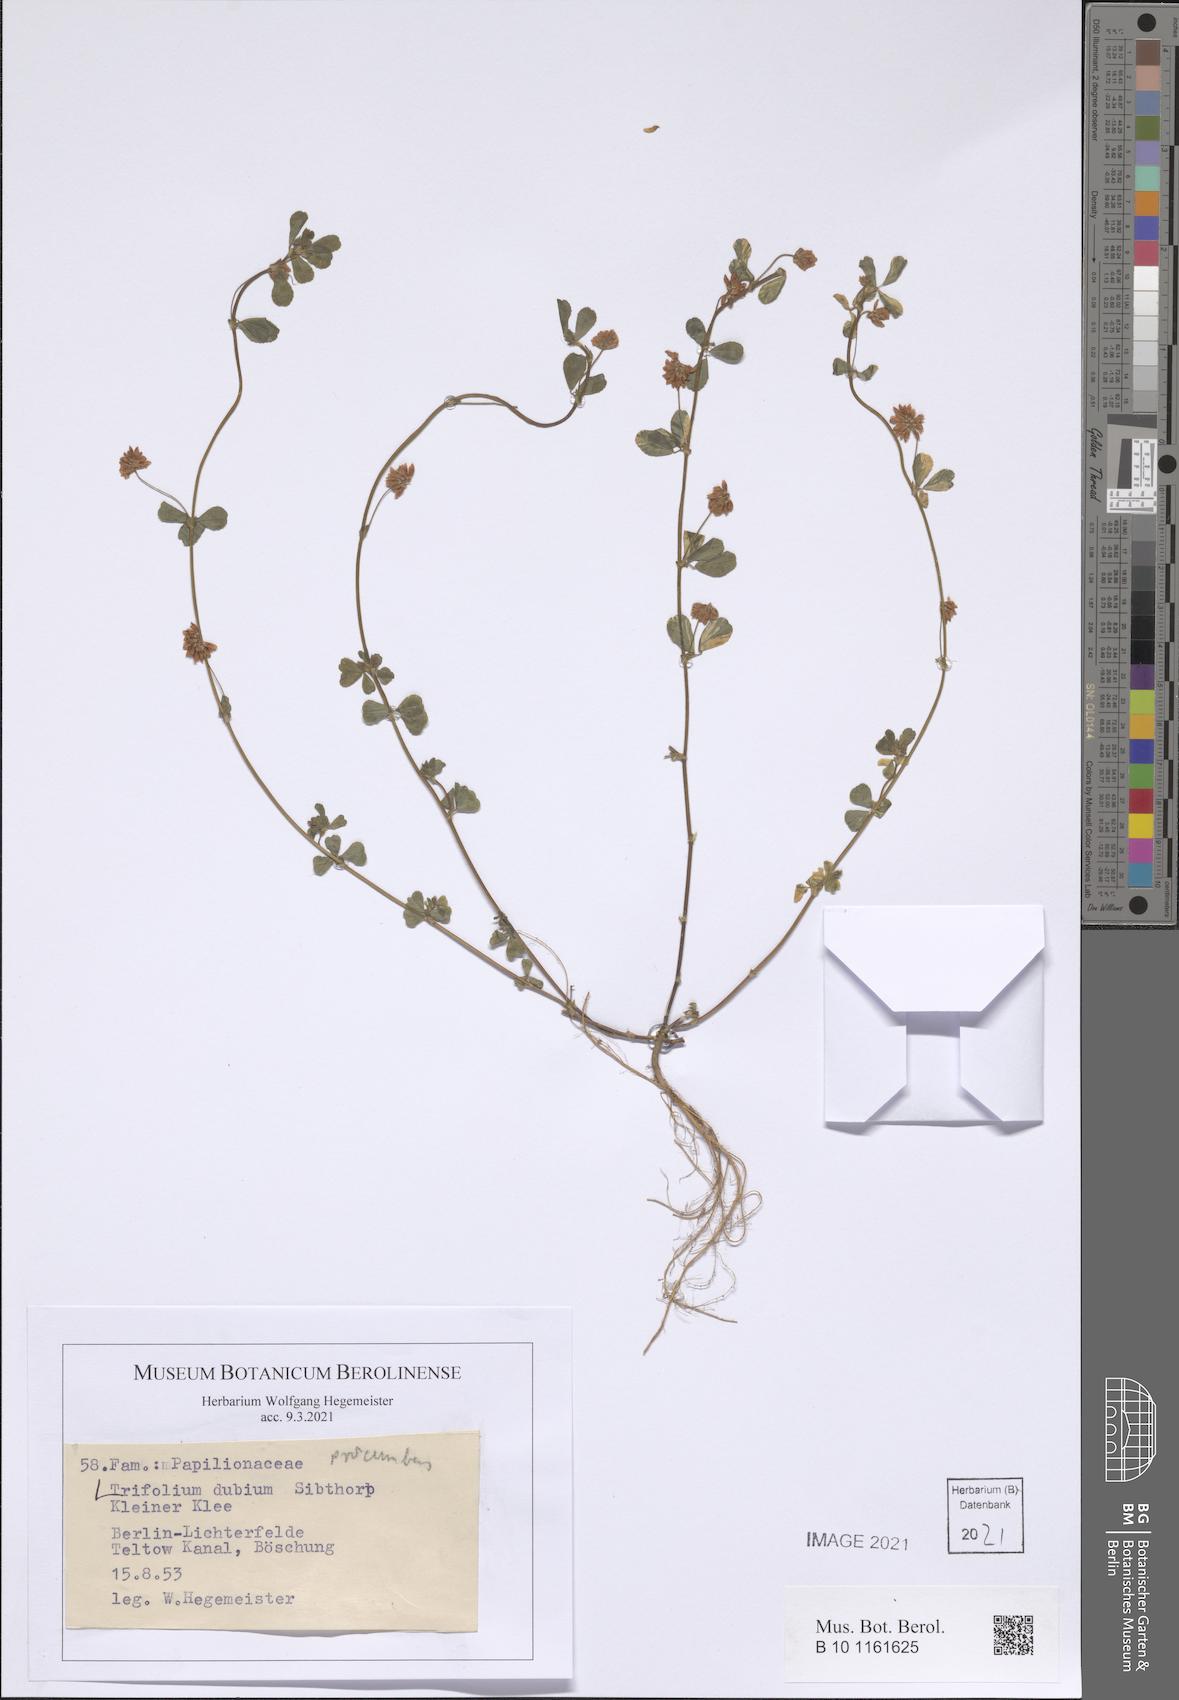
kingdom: Plantae
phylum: Tracheophyta
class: Magnoliopsida
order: Fabales
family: Fabaceae
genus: Trifolium
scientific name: Trifolium dubium
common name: Suckling clover
